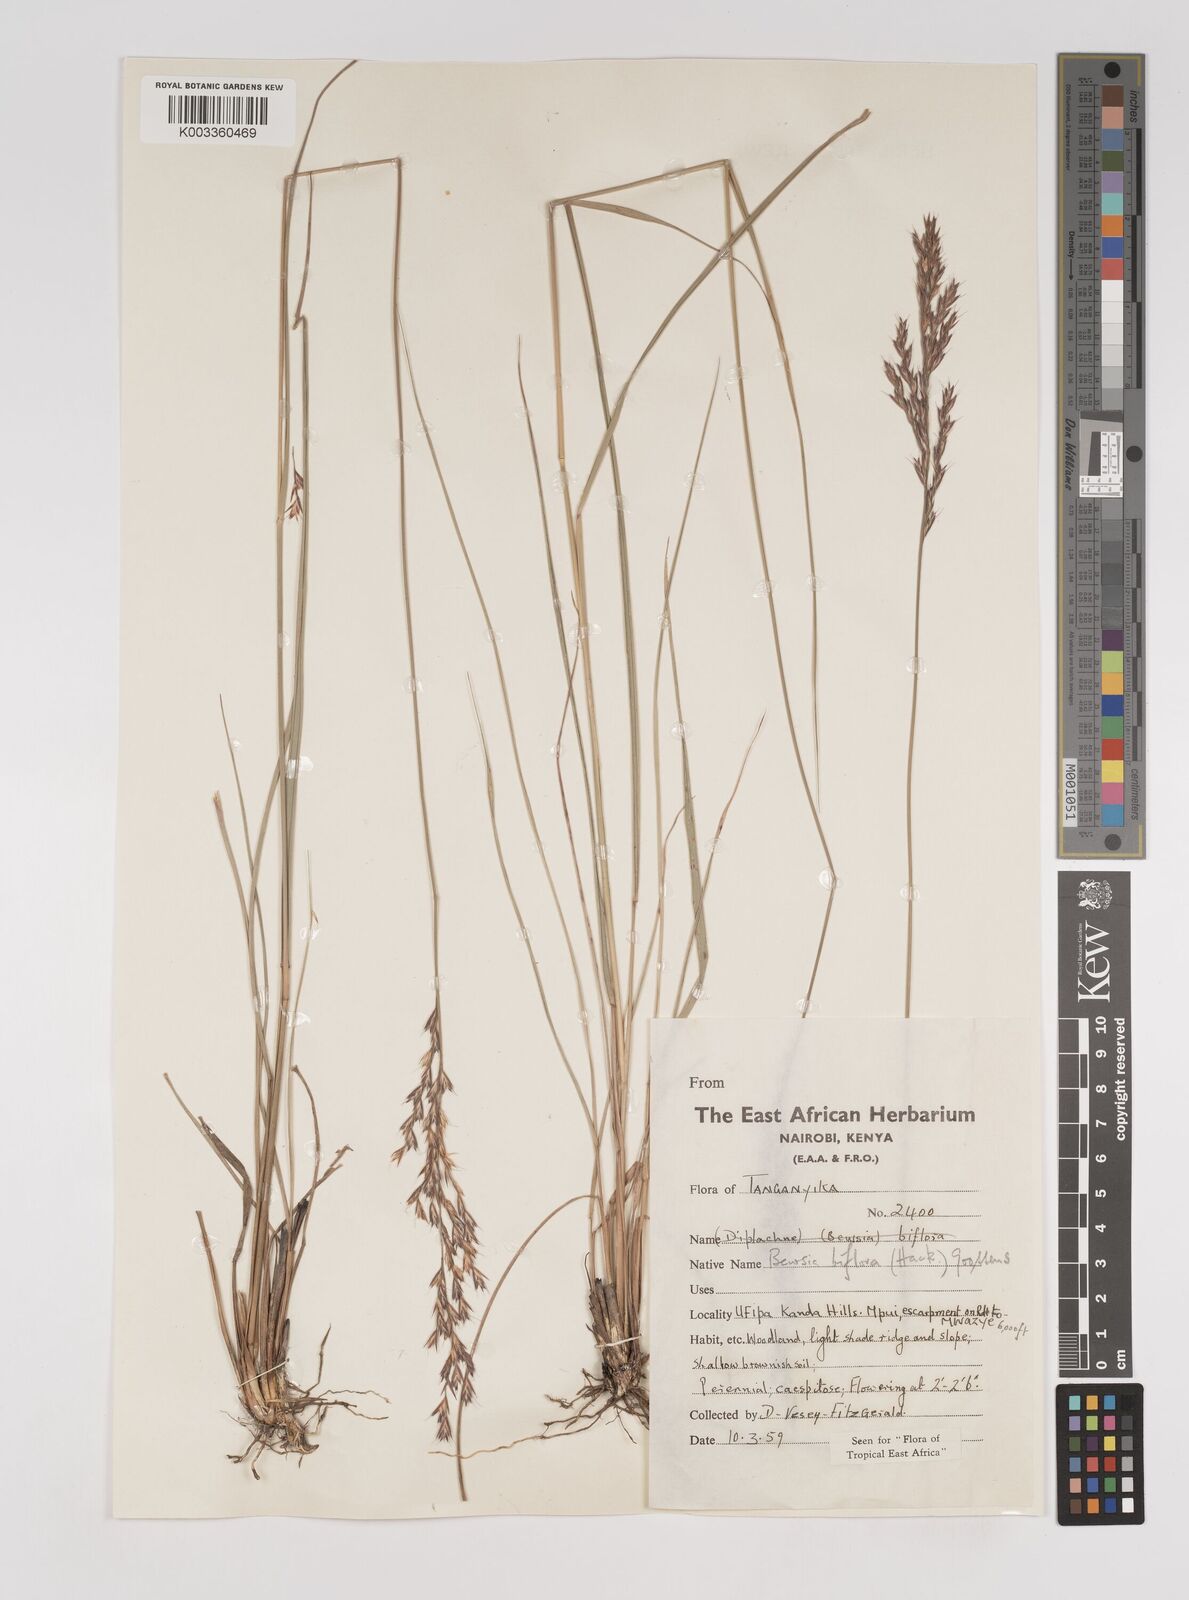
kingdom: Plantae
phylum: Tracheophyta
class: Liliopsida
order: Poales
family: Poaceae
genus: Bewsia
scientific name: Bewsia biflora
